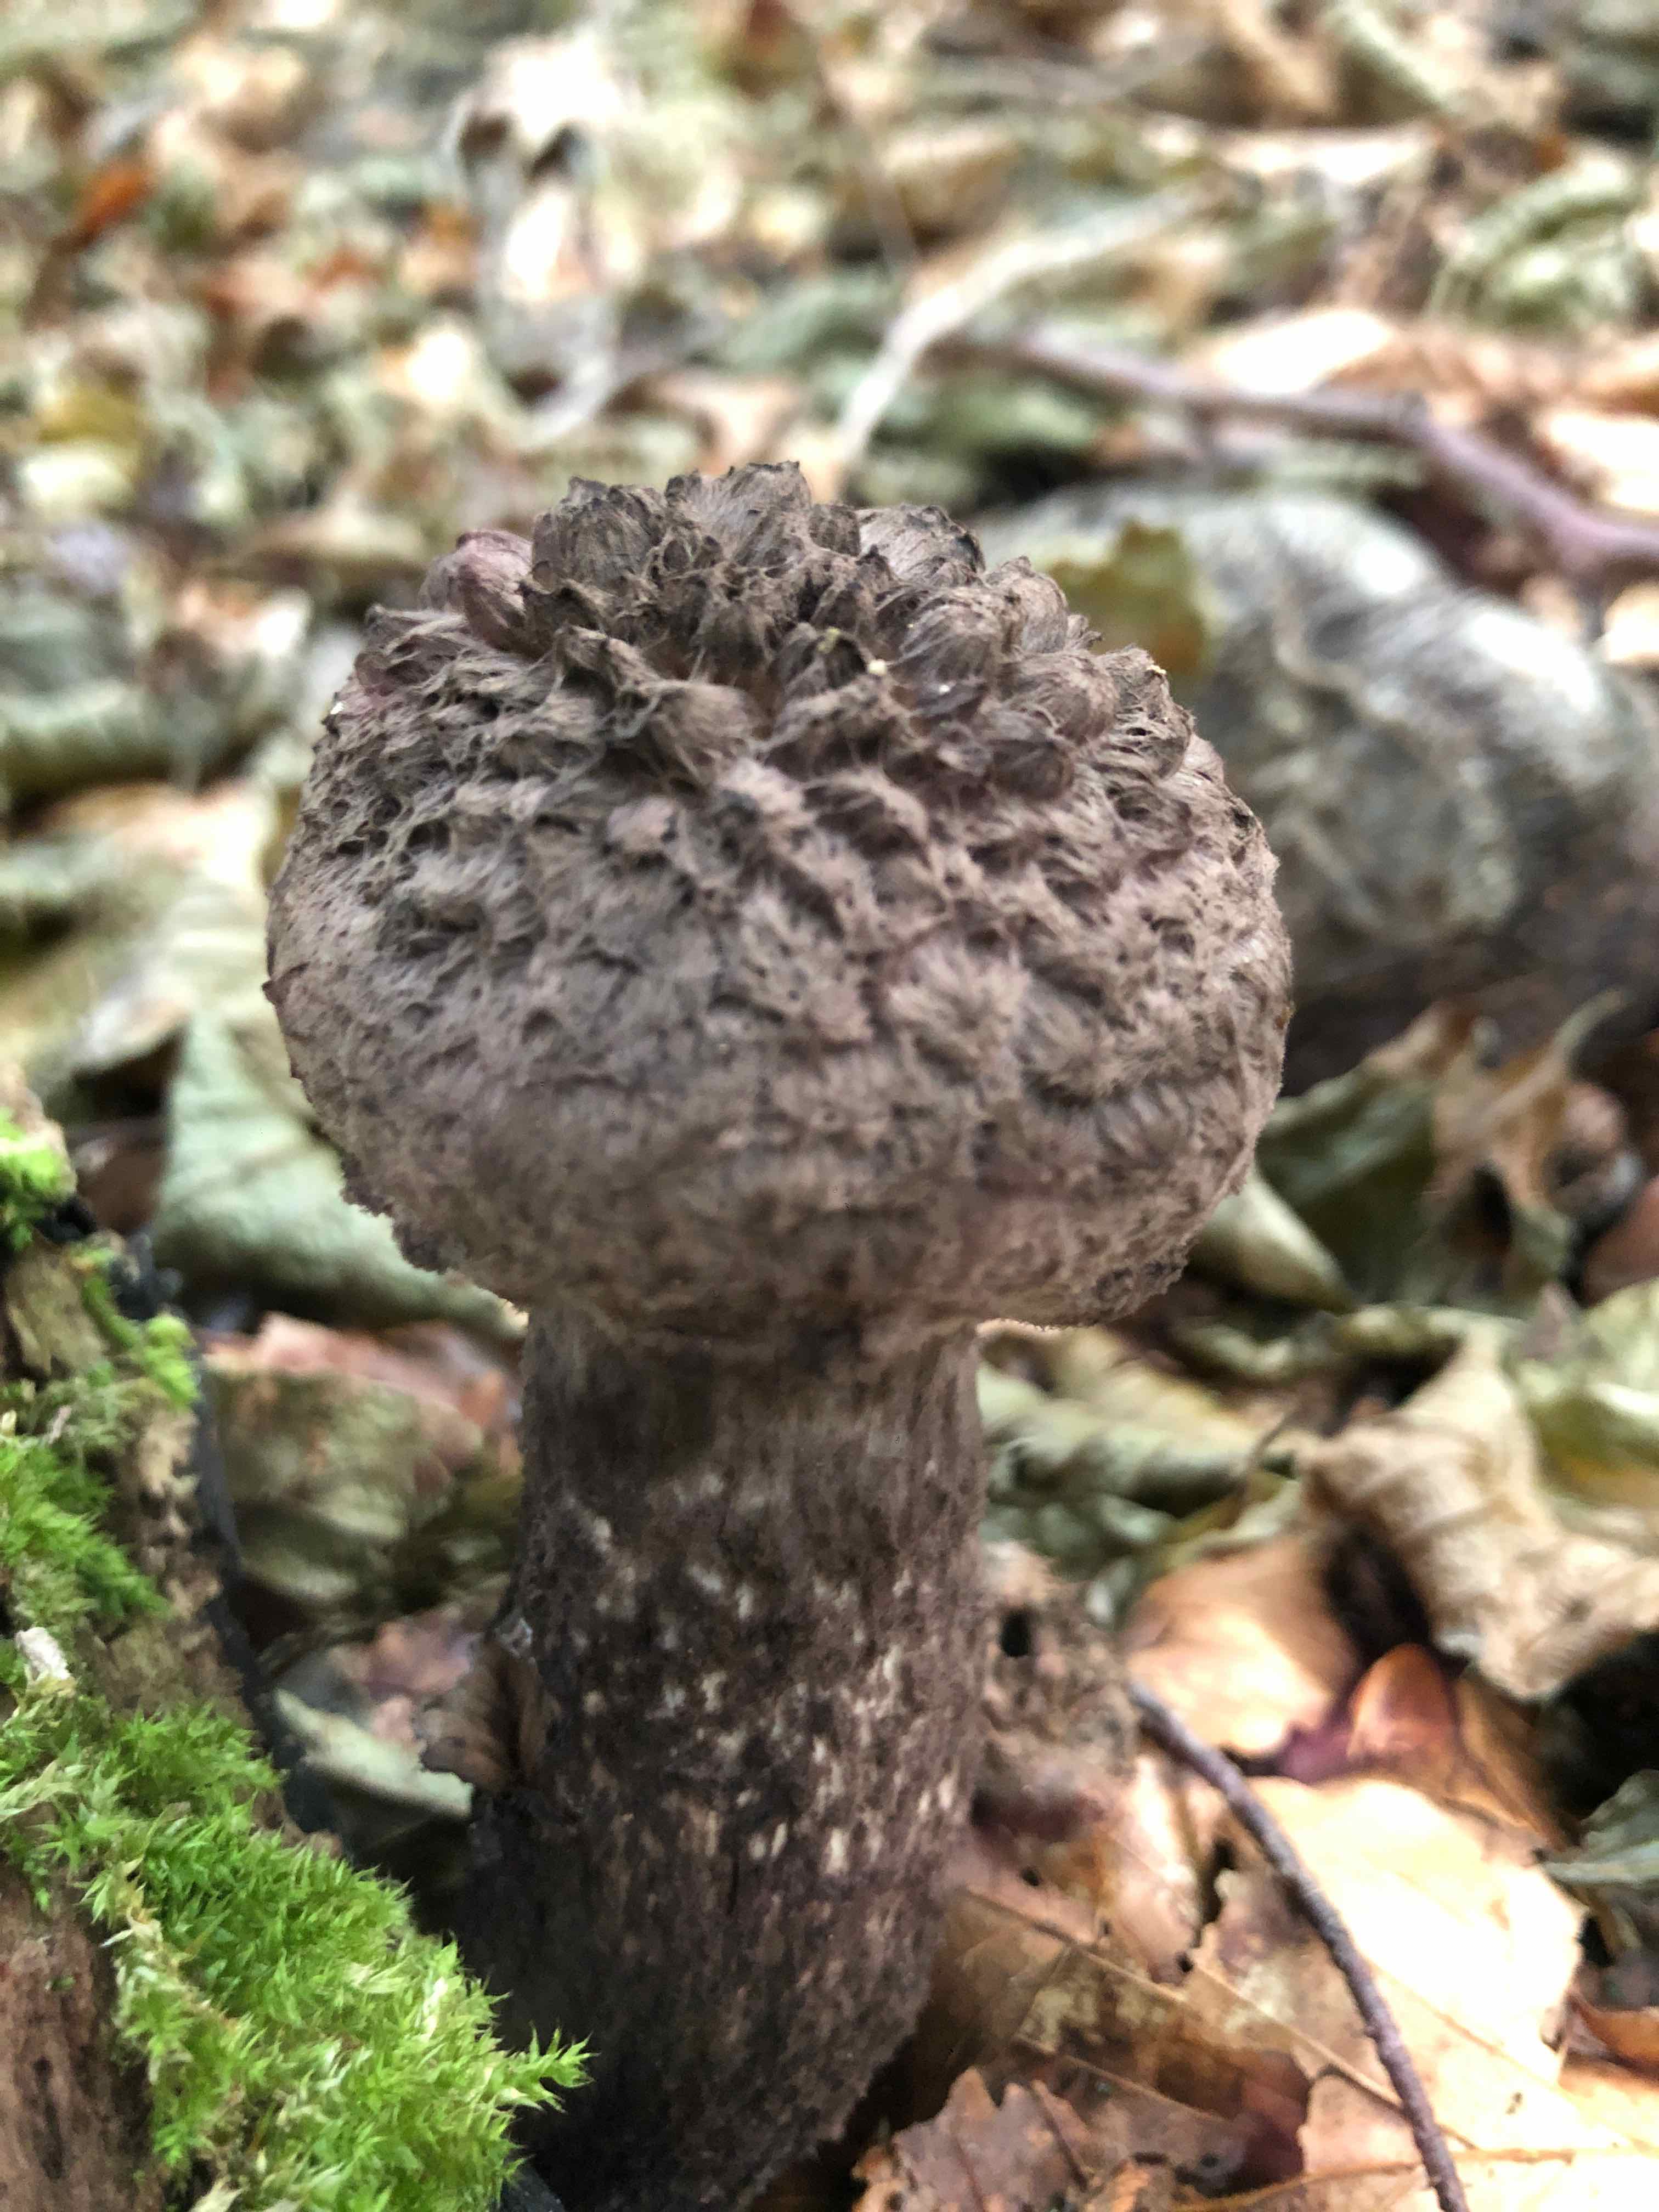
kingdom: Fungi
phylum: Basidiomycota
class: Agaricomycetes
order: Boletales
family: Boletaceae
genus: Strobilomyces
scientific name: Strobilomyces strobilaceus
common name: koglerørhat
